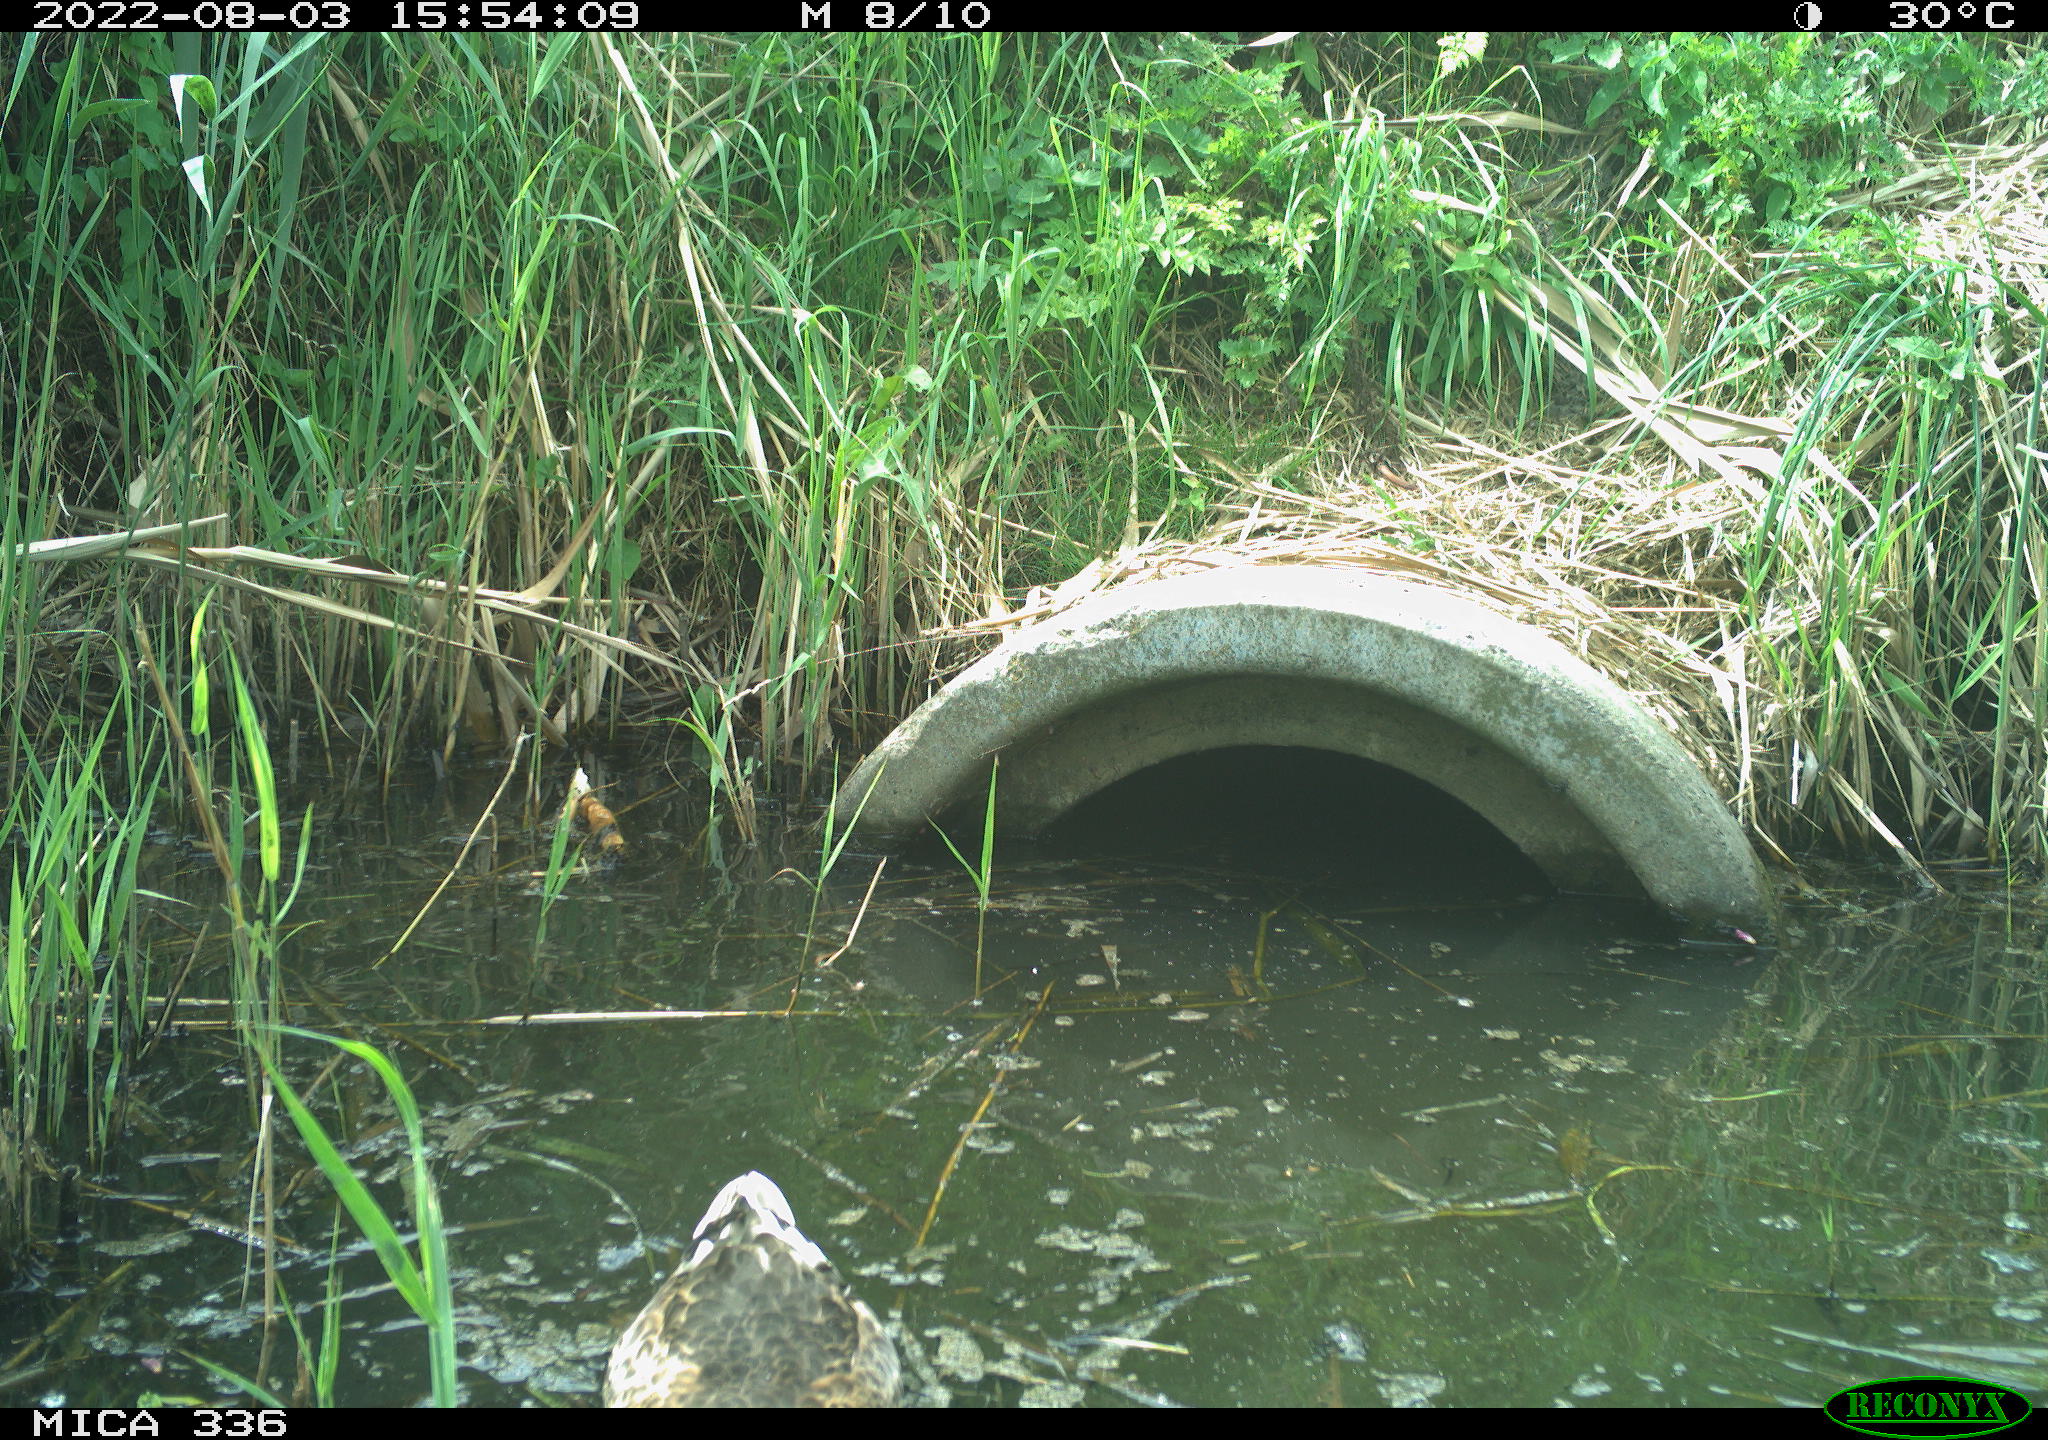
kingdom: Animalia
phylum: Chordata
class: Aves
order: Anseriformes
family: Anatidae
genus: Anas
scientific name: Anas platyrhynchos
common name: Mallard
